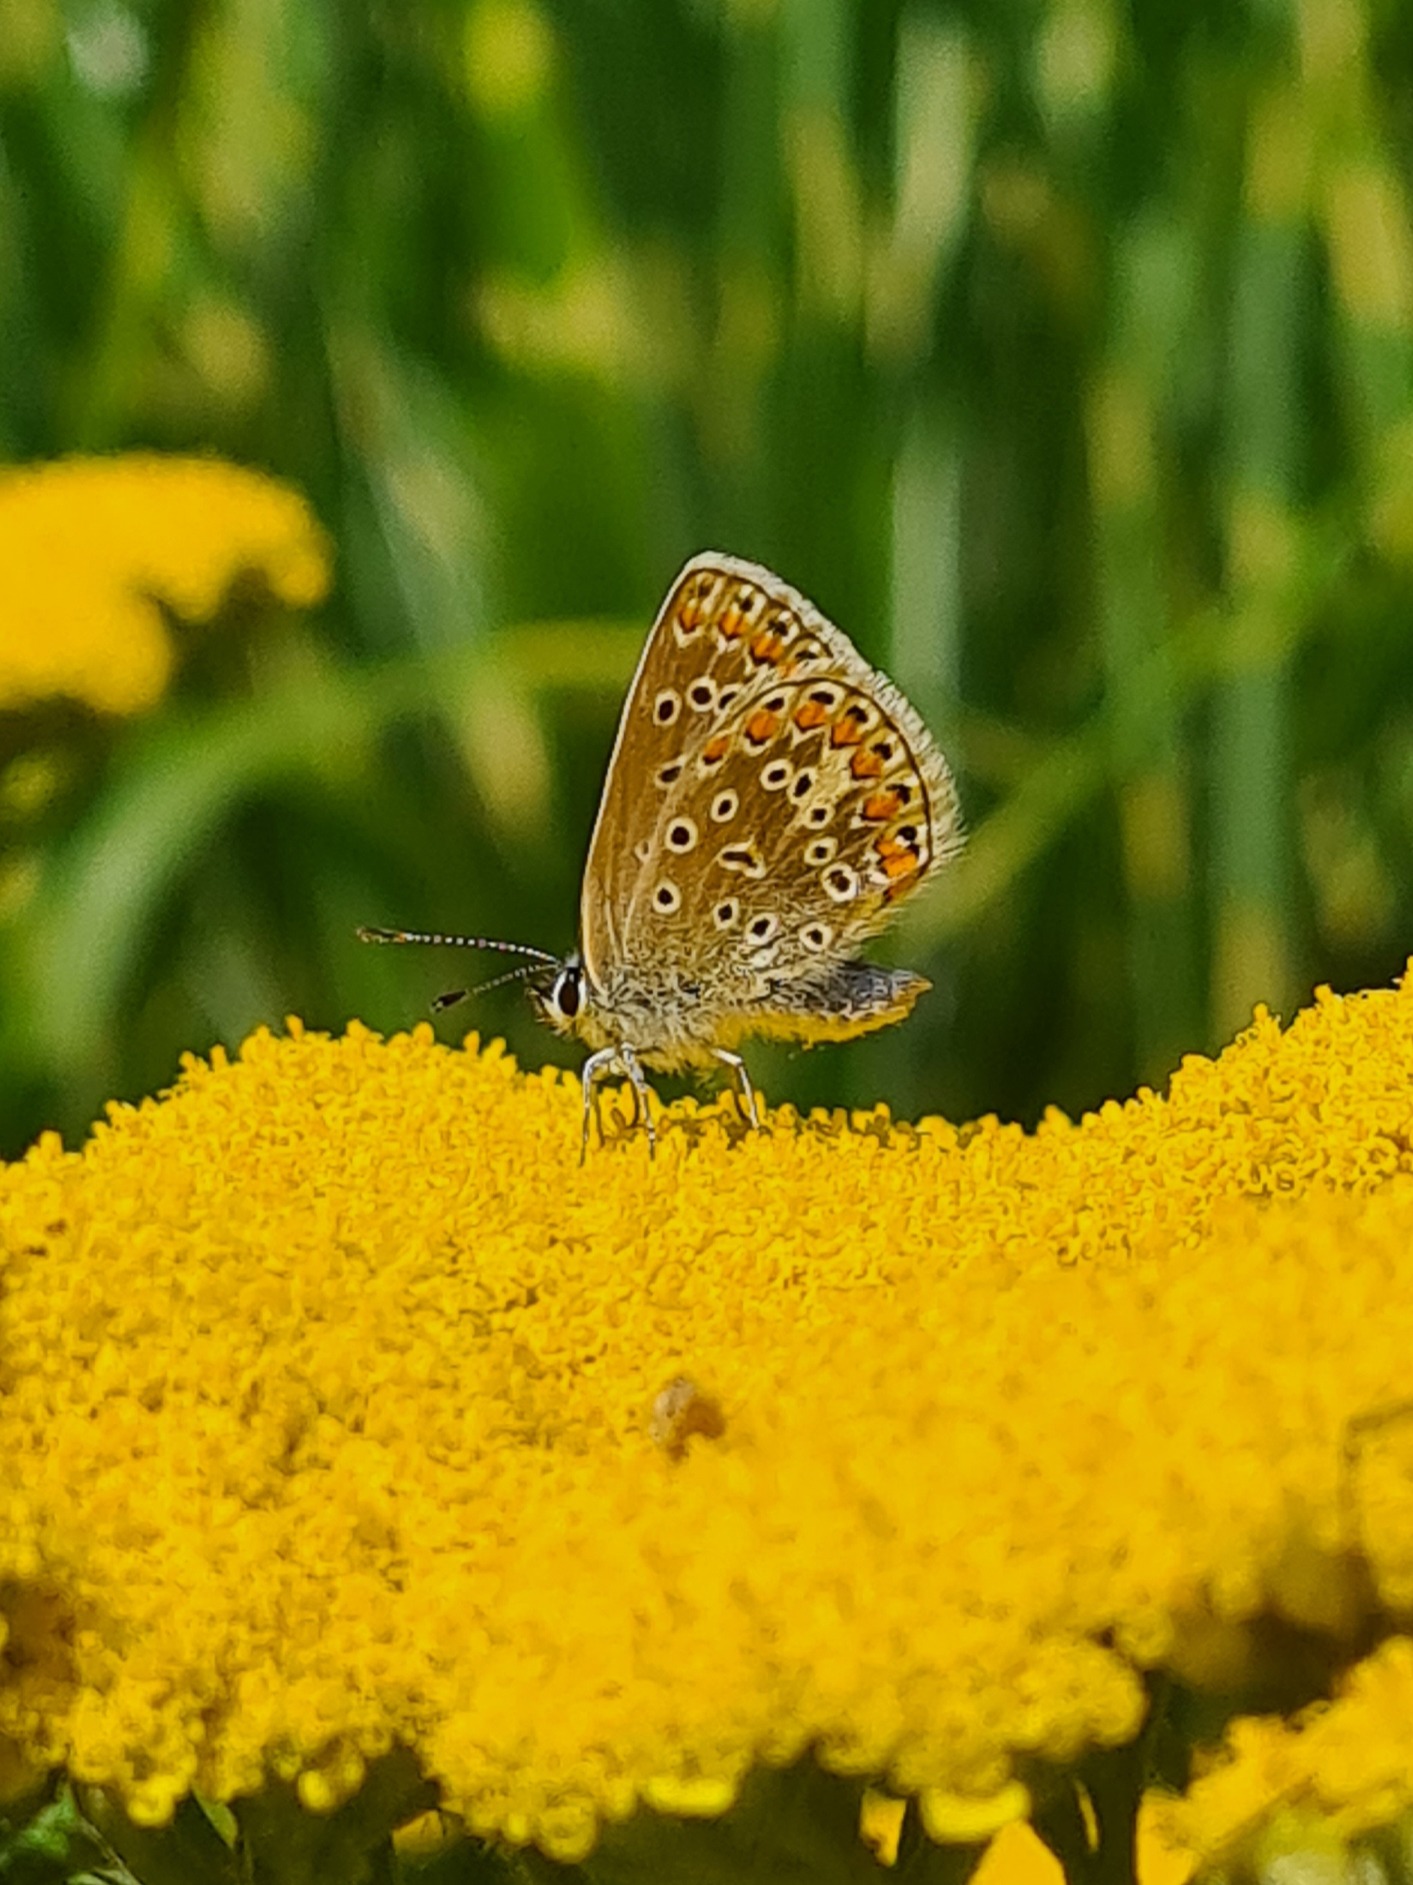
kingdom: Animalia
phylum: Arthropoda
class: Insecta
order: Lepidoptera
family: Lycaenidae
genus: Polyommatus
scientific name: Polyommatus icarus
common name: Almindelig blåfugl
